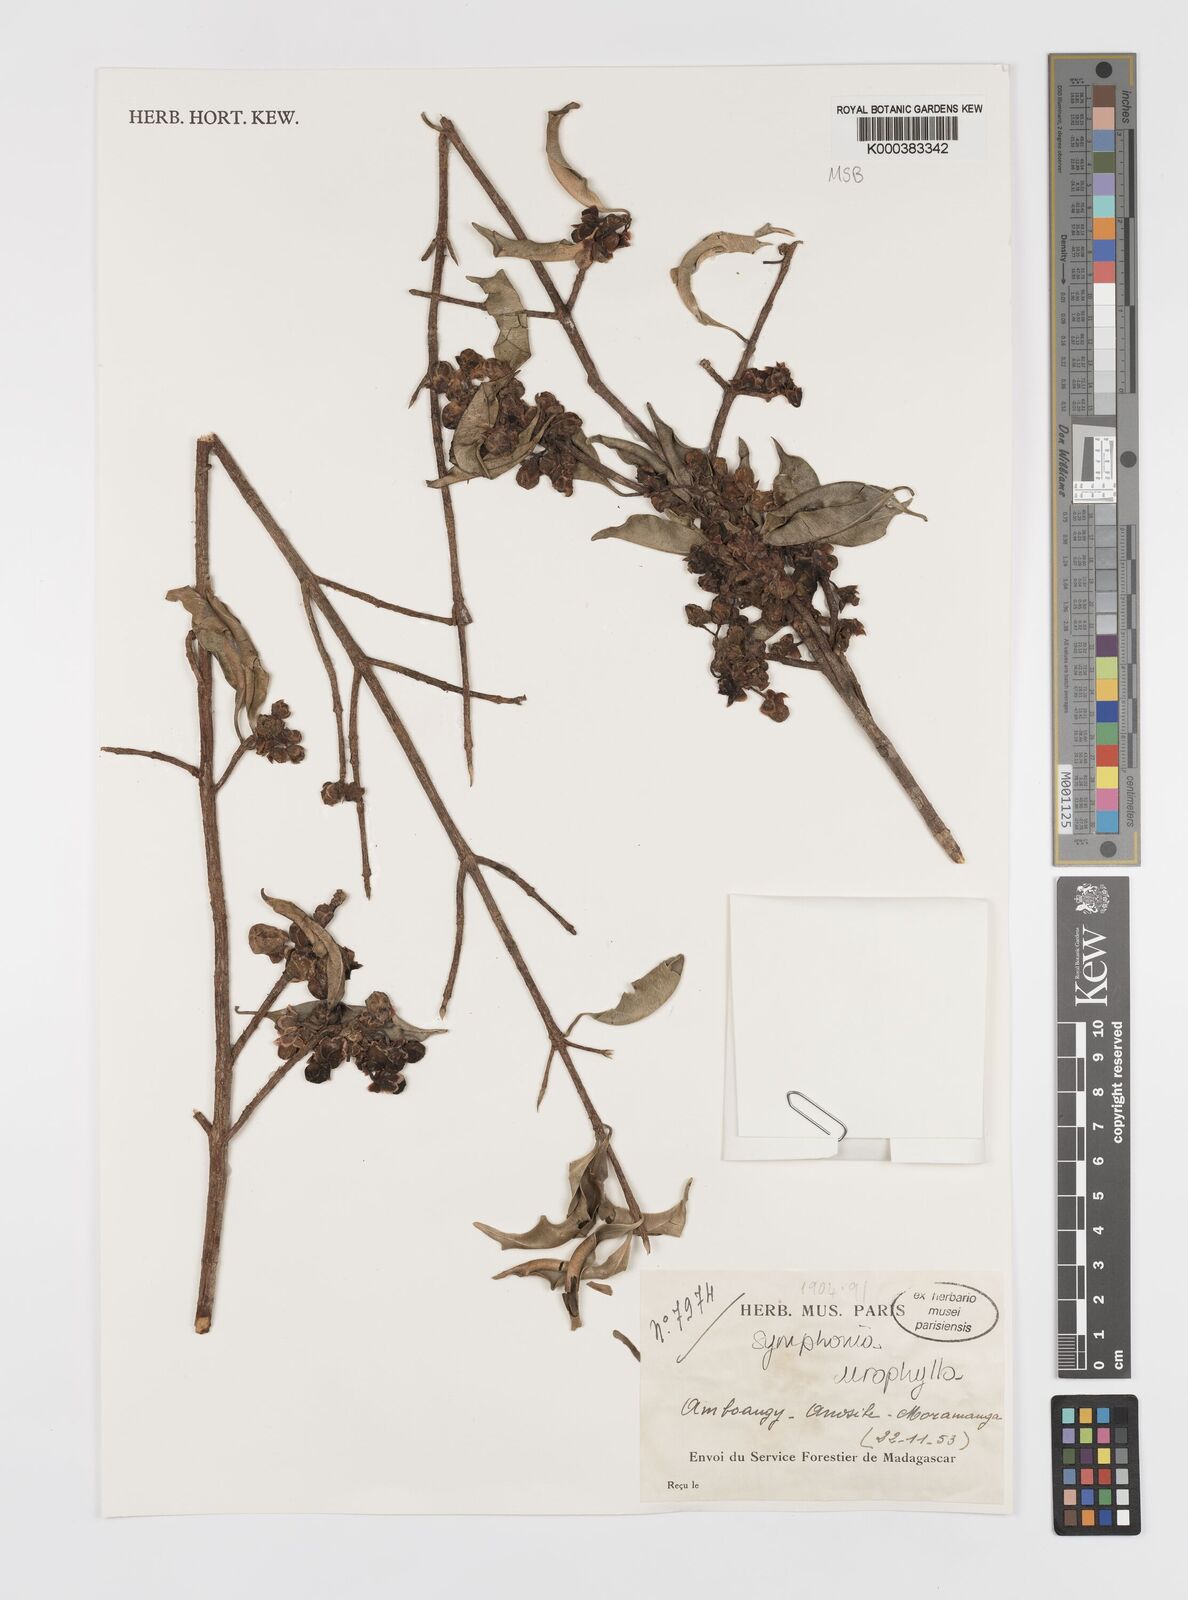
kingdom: Plantae
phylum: Tracheophyta
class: Magnoliopsida
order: Malpighiales
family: Clusiaceae
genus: Symphonia
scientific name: Symphonia
